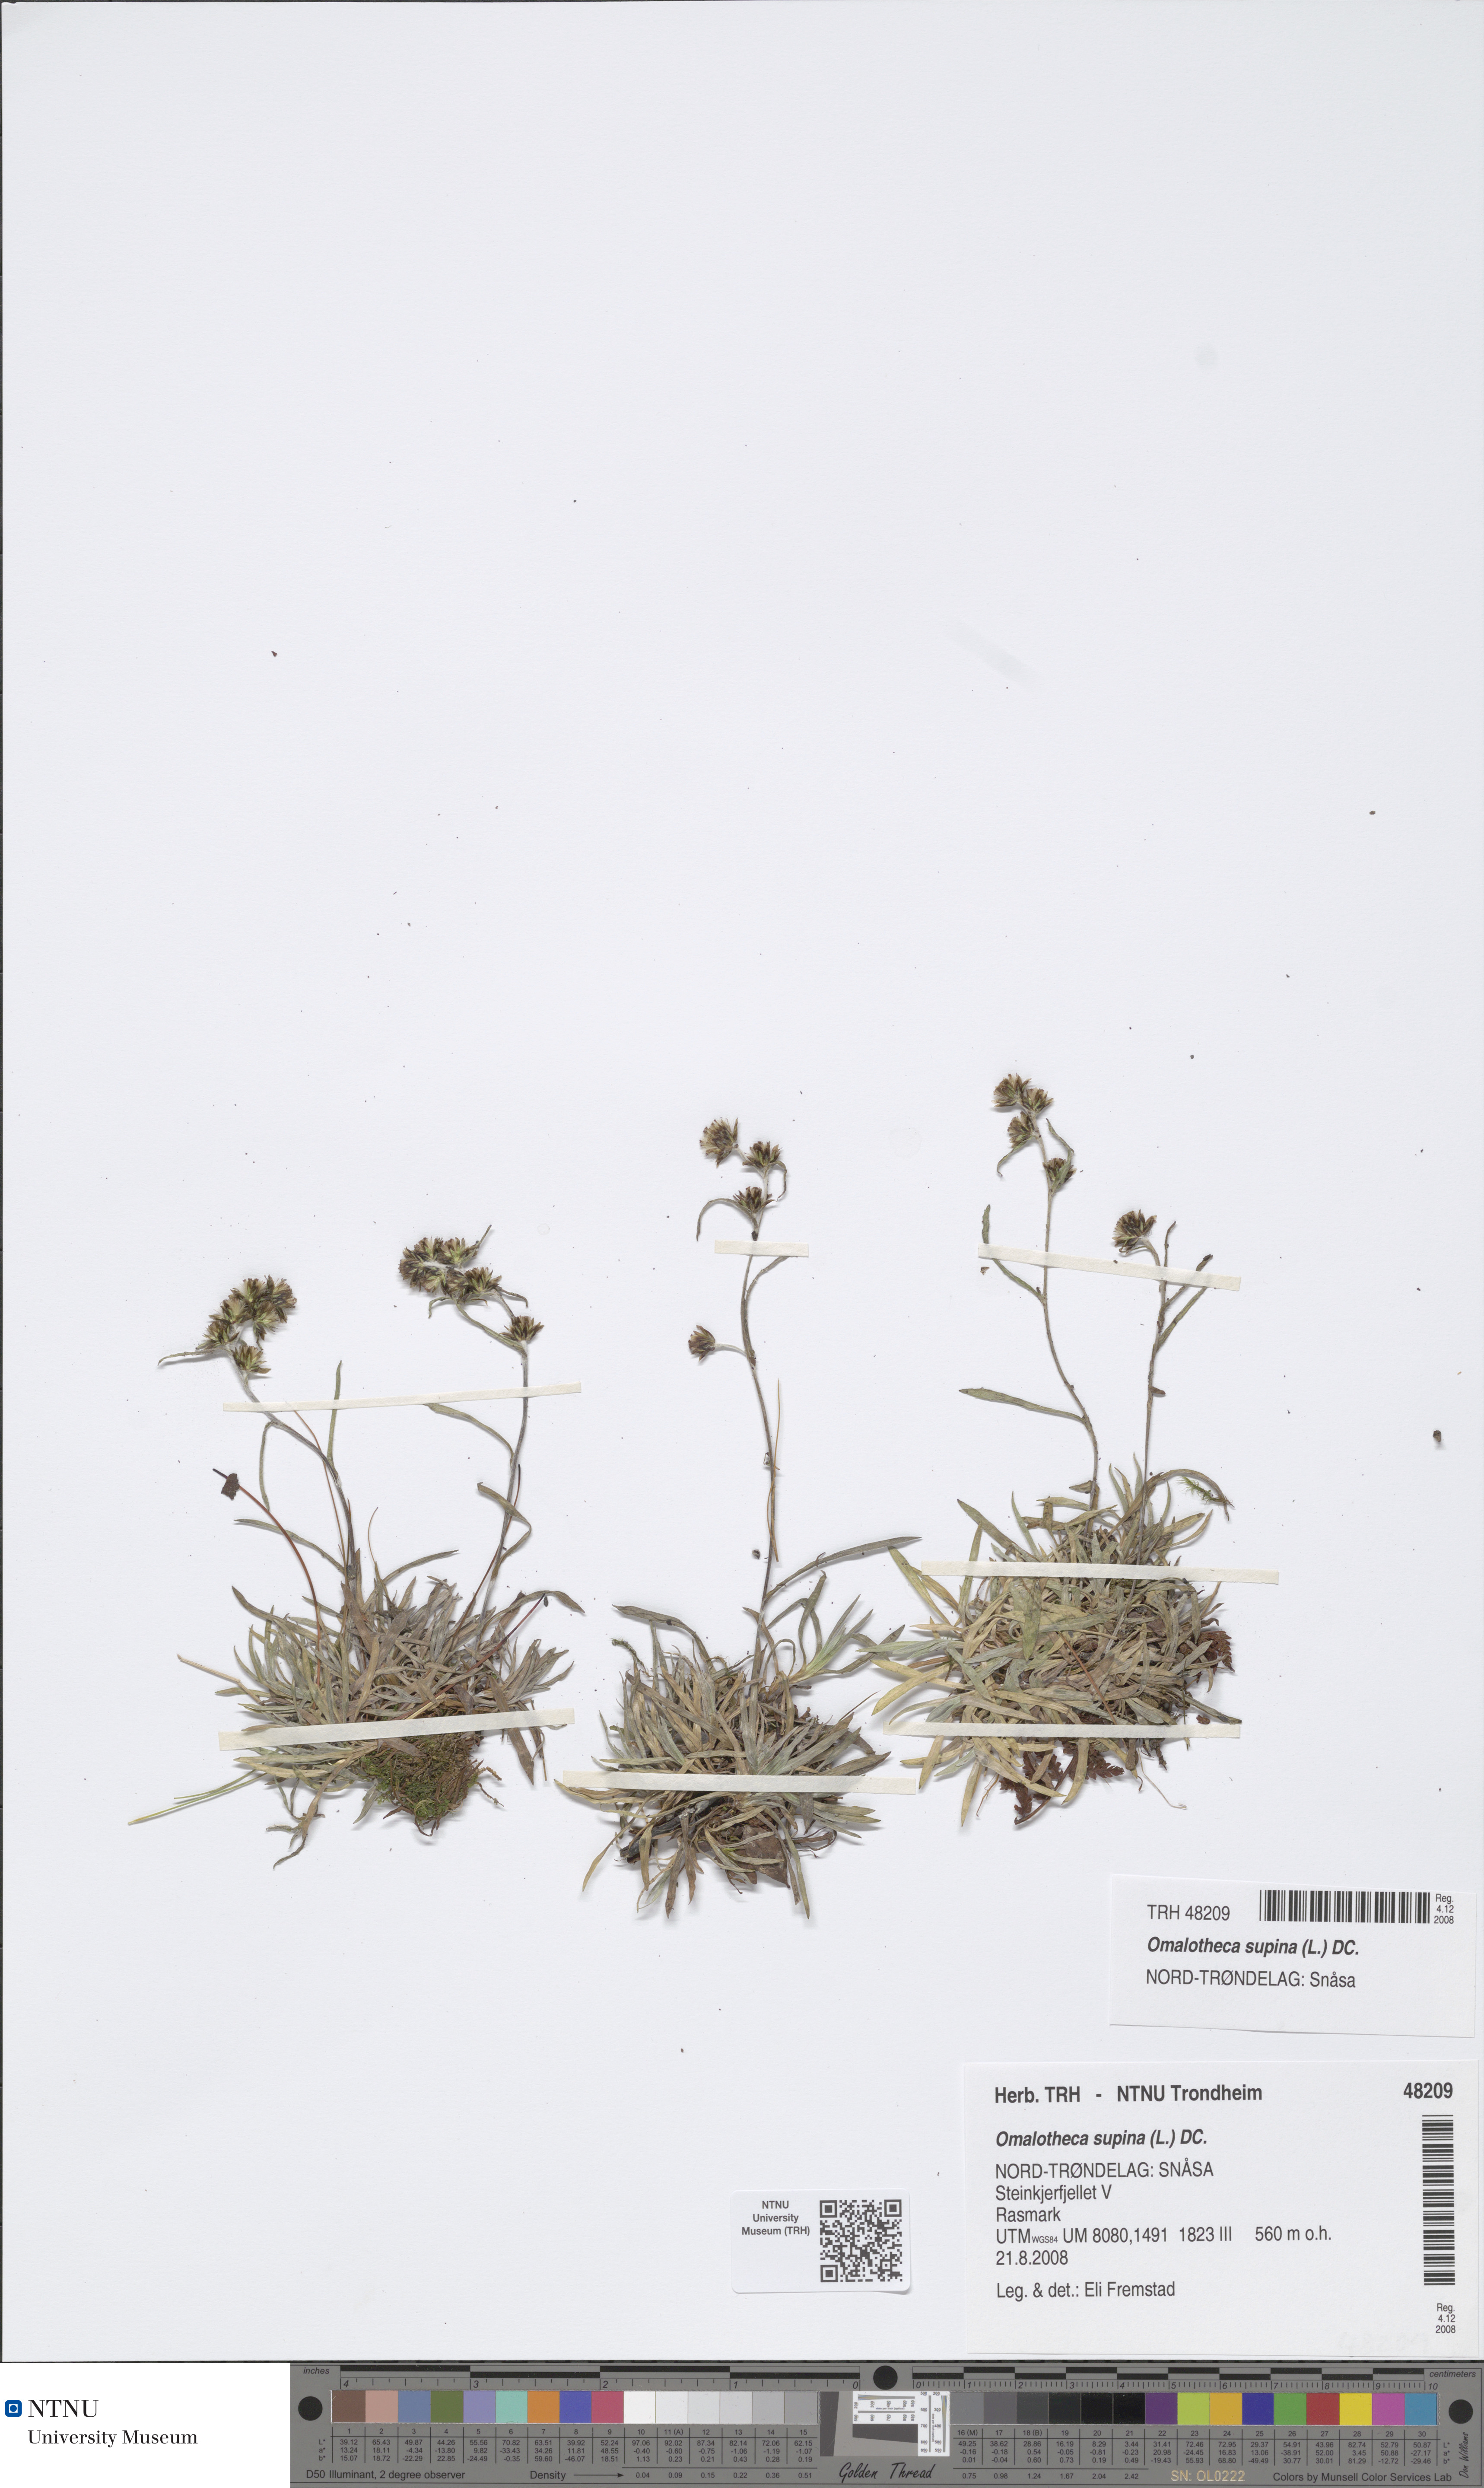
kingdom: Plantae
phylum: Tracheophyta
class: Magnoliopsida
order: Asterales
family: Asteraceae
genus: Omalotheca
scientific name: Omalotheca supina
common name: Alpine arctic-cudweed
